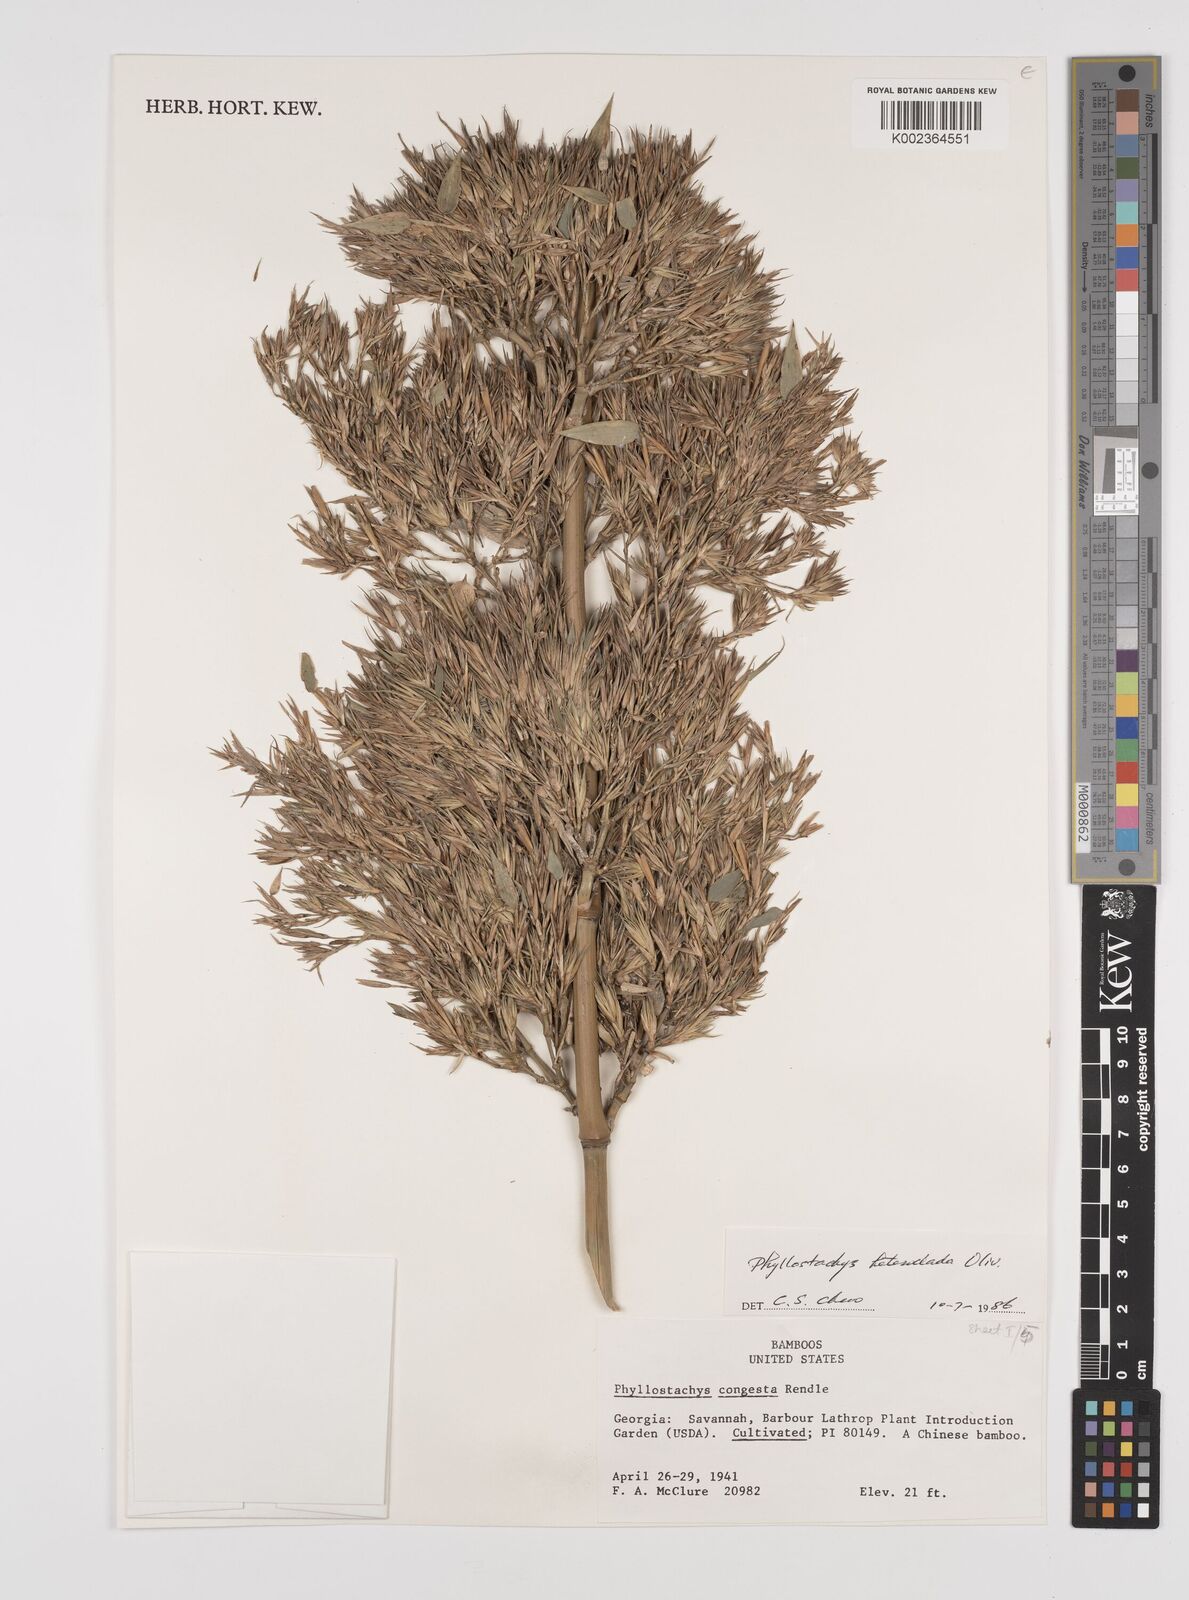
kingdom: Plantae
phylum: Tracheophyta
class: Liliopsida
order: Poales
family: Poaceae
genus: Phyllostachys
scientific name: Phyllostachys heteroclada
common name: Fishscale bamboo
